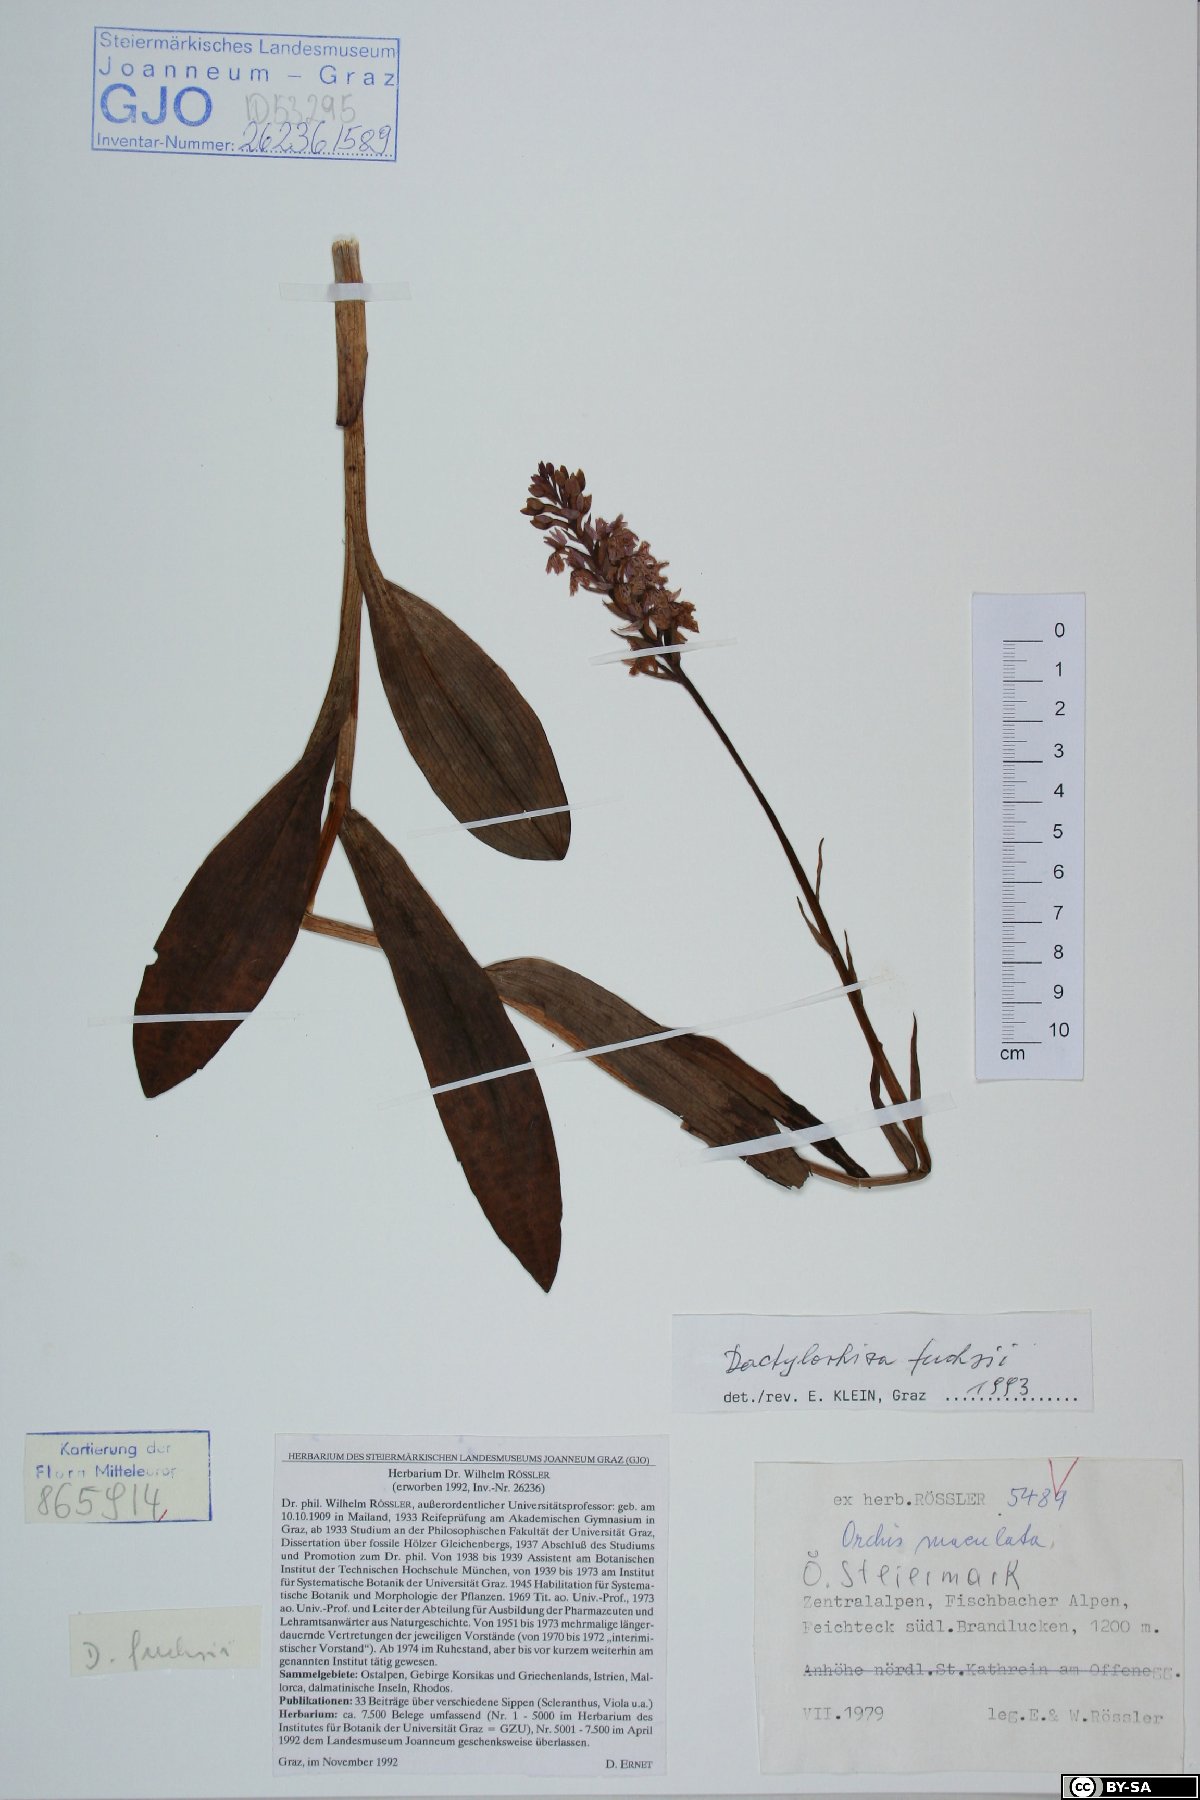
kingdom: Plantae
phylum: Tracheophyta
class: Liliopsida
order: Asparagales
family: Orchidaceae
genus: Dactylorhiza
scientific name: Dactylorhiza maculata
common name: Heath spotted-orchid
